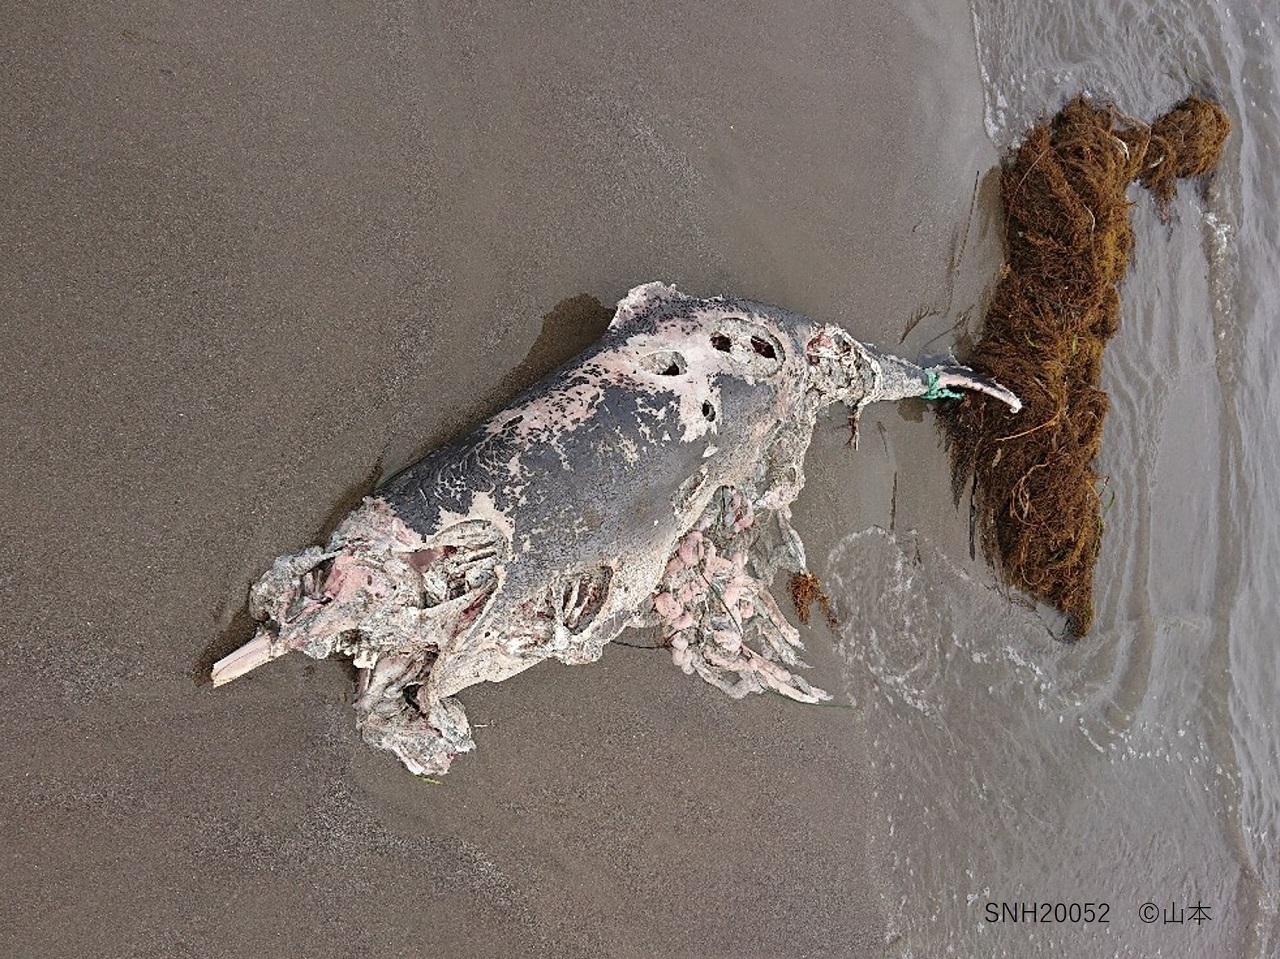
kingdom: Animalia
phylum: Chordata
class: Mammalia
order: Cetacea
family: Phocoenidae
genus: Phocoena
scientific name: Phocoena phocoena
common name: Harbour porpoise
